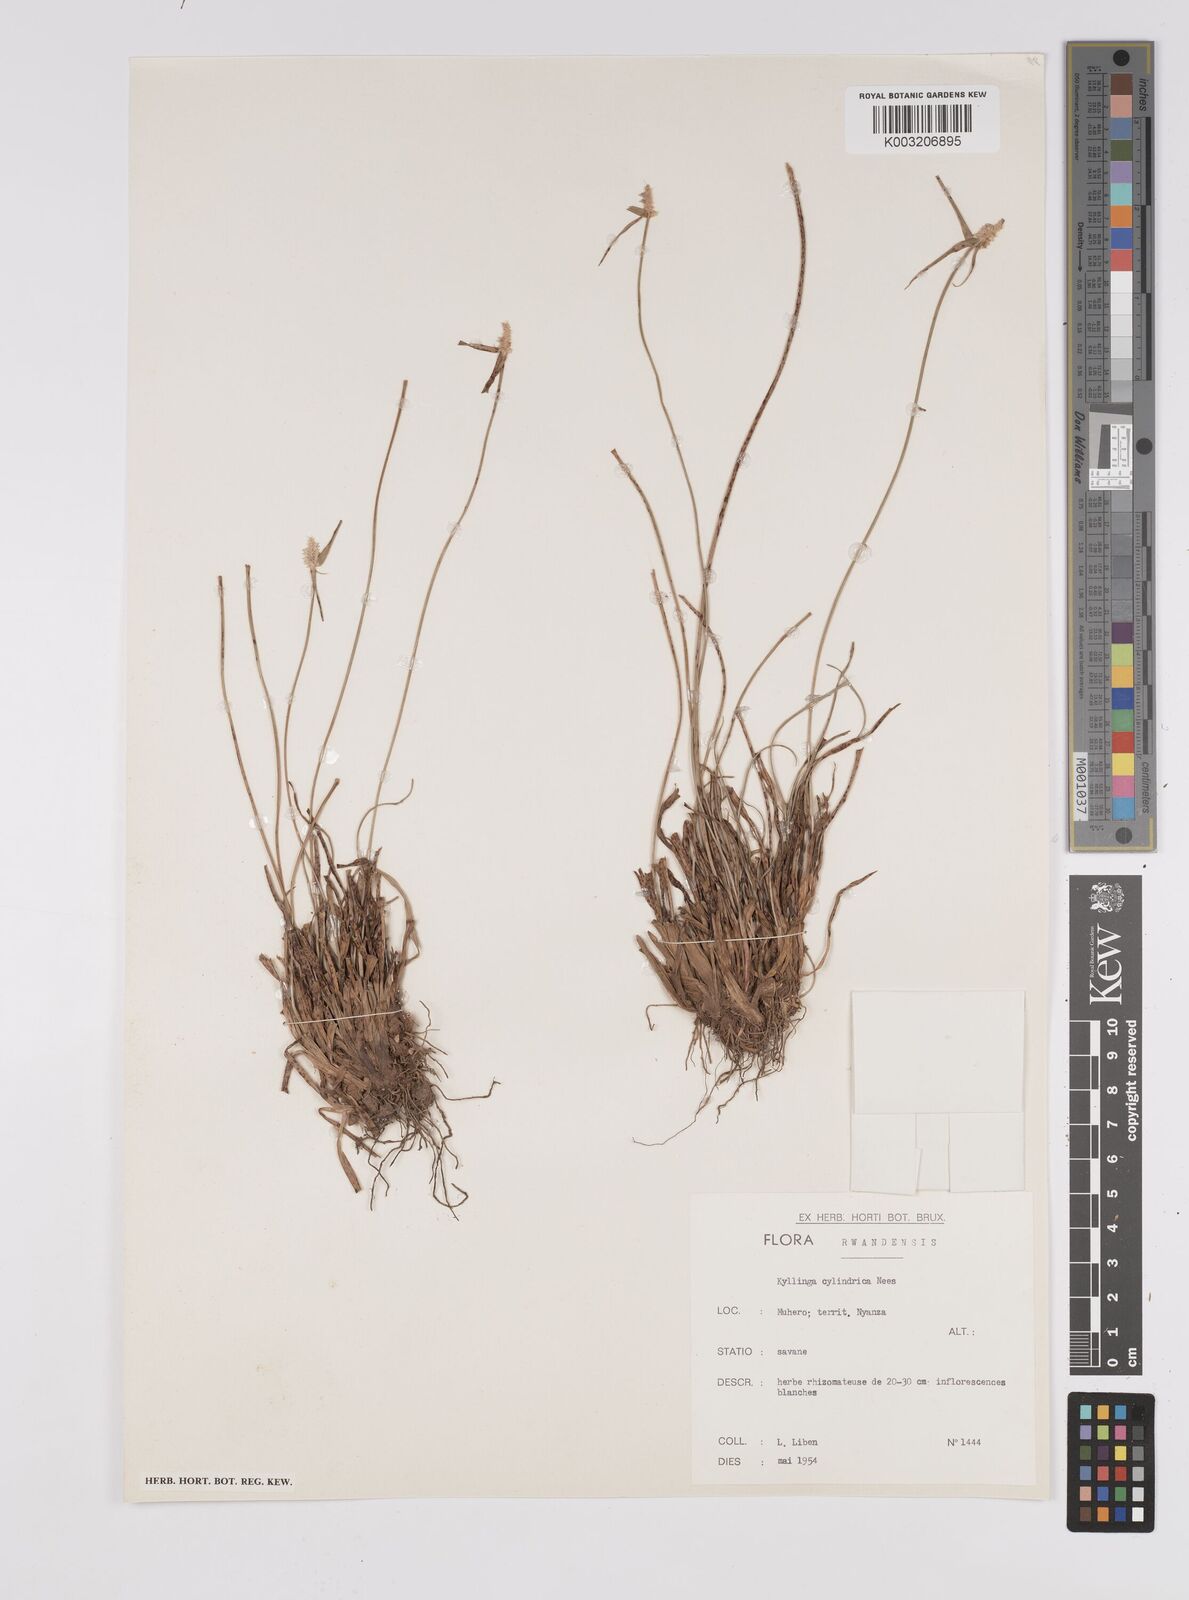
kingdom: Plantae
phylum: Tracheophyta
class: Liliopsida
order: Poales
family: Cyperaceae
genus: Cyperus
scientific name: Cyperus odoratus
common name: Fragrant flatsedge
